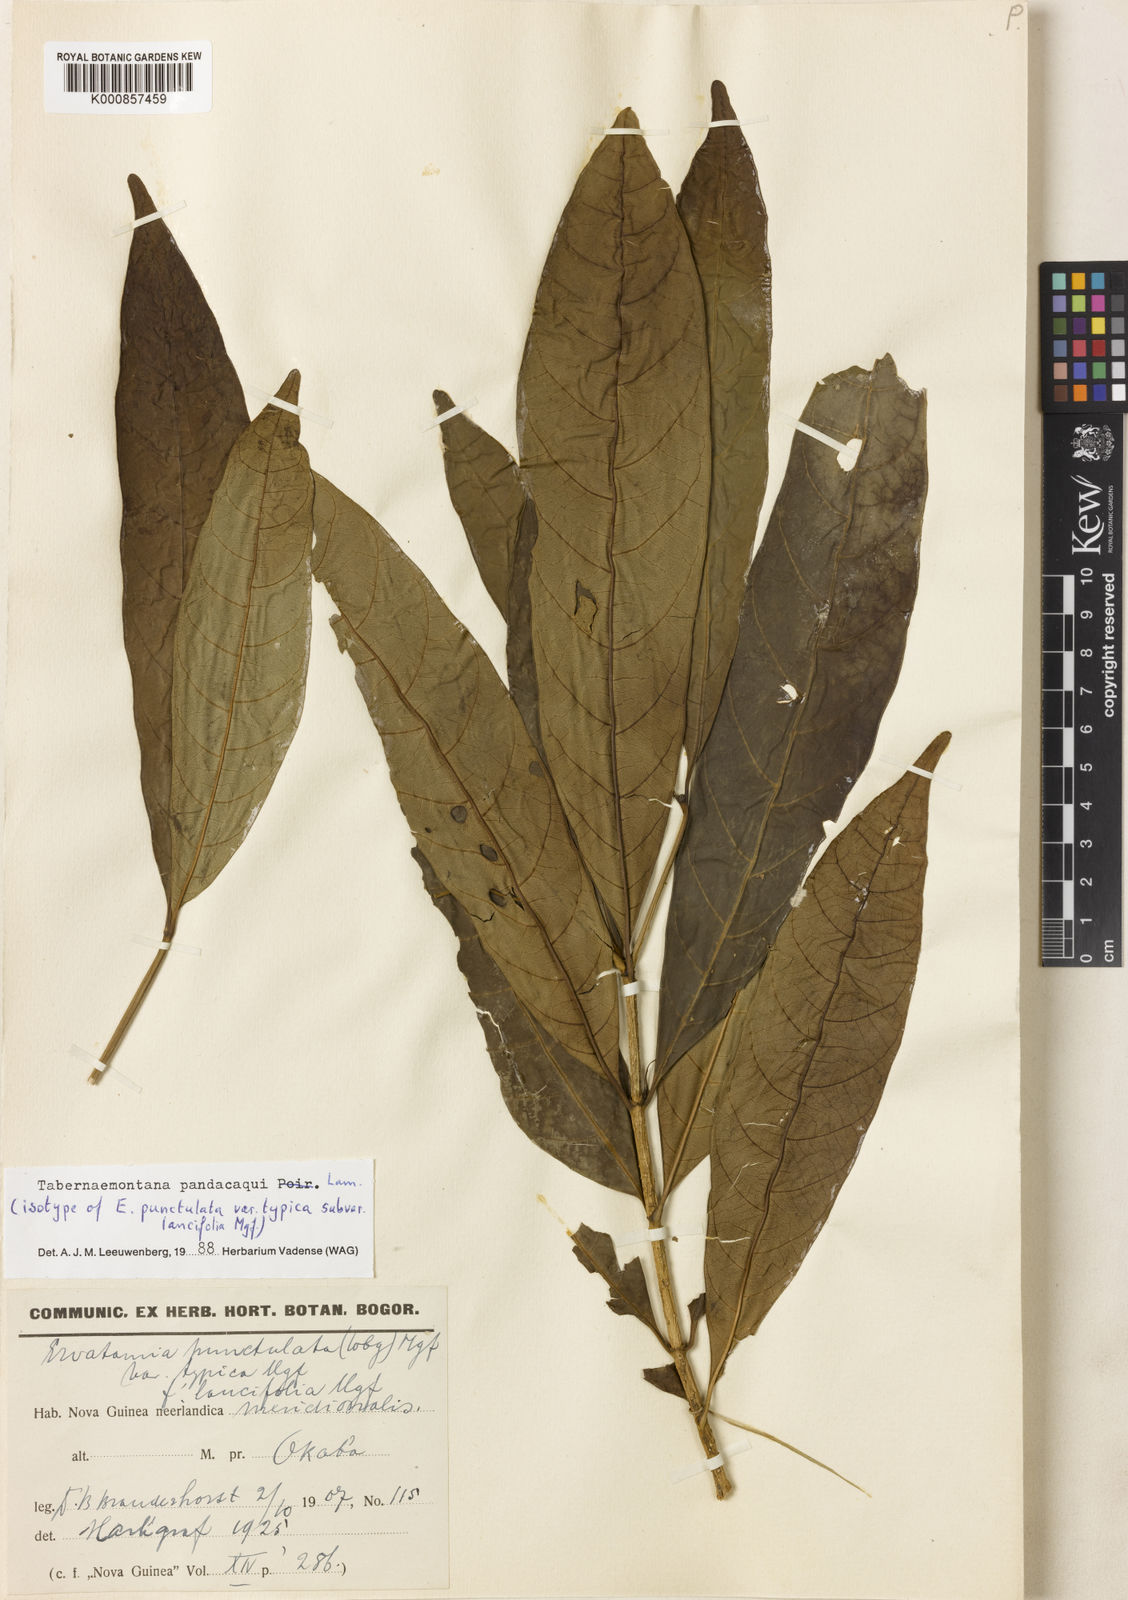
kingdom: Plantae
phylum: Tracheophyta
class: Magnoliopsida
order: Gentianales
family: Apocynaceae
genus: Tabernaemontana
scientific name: Tabernaemontana
